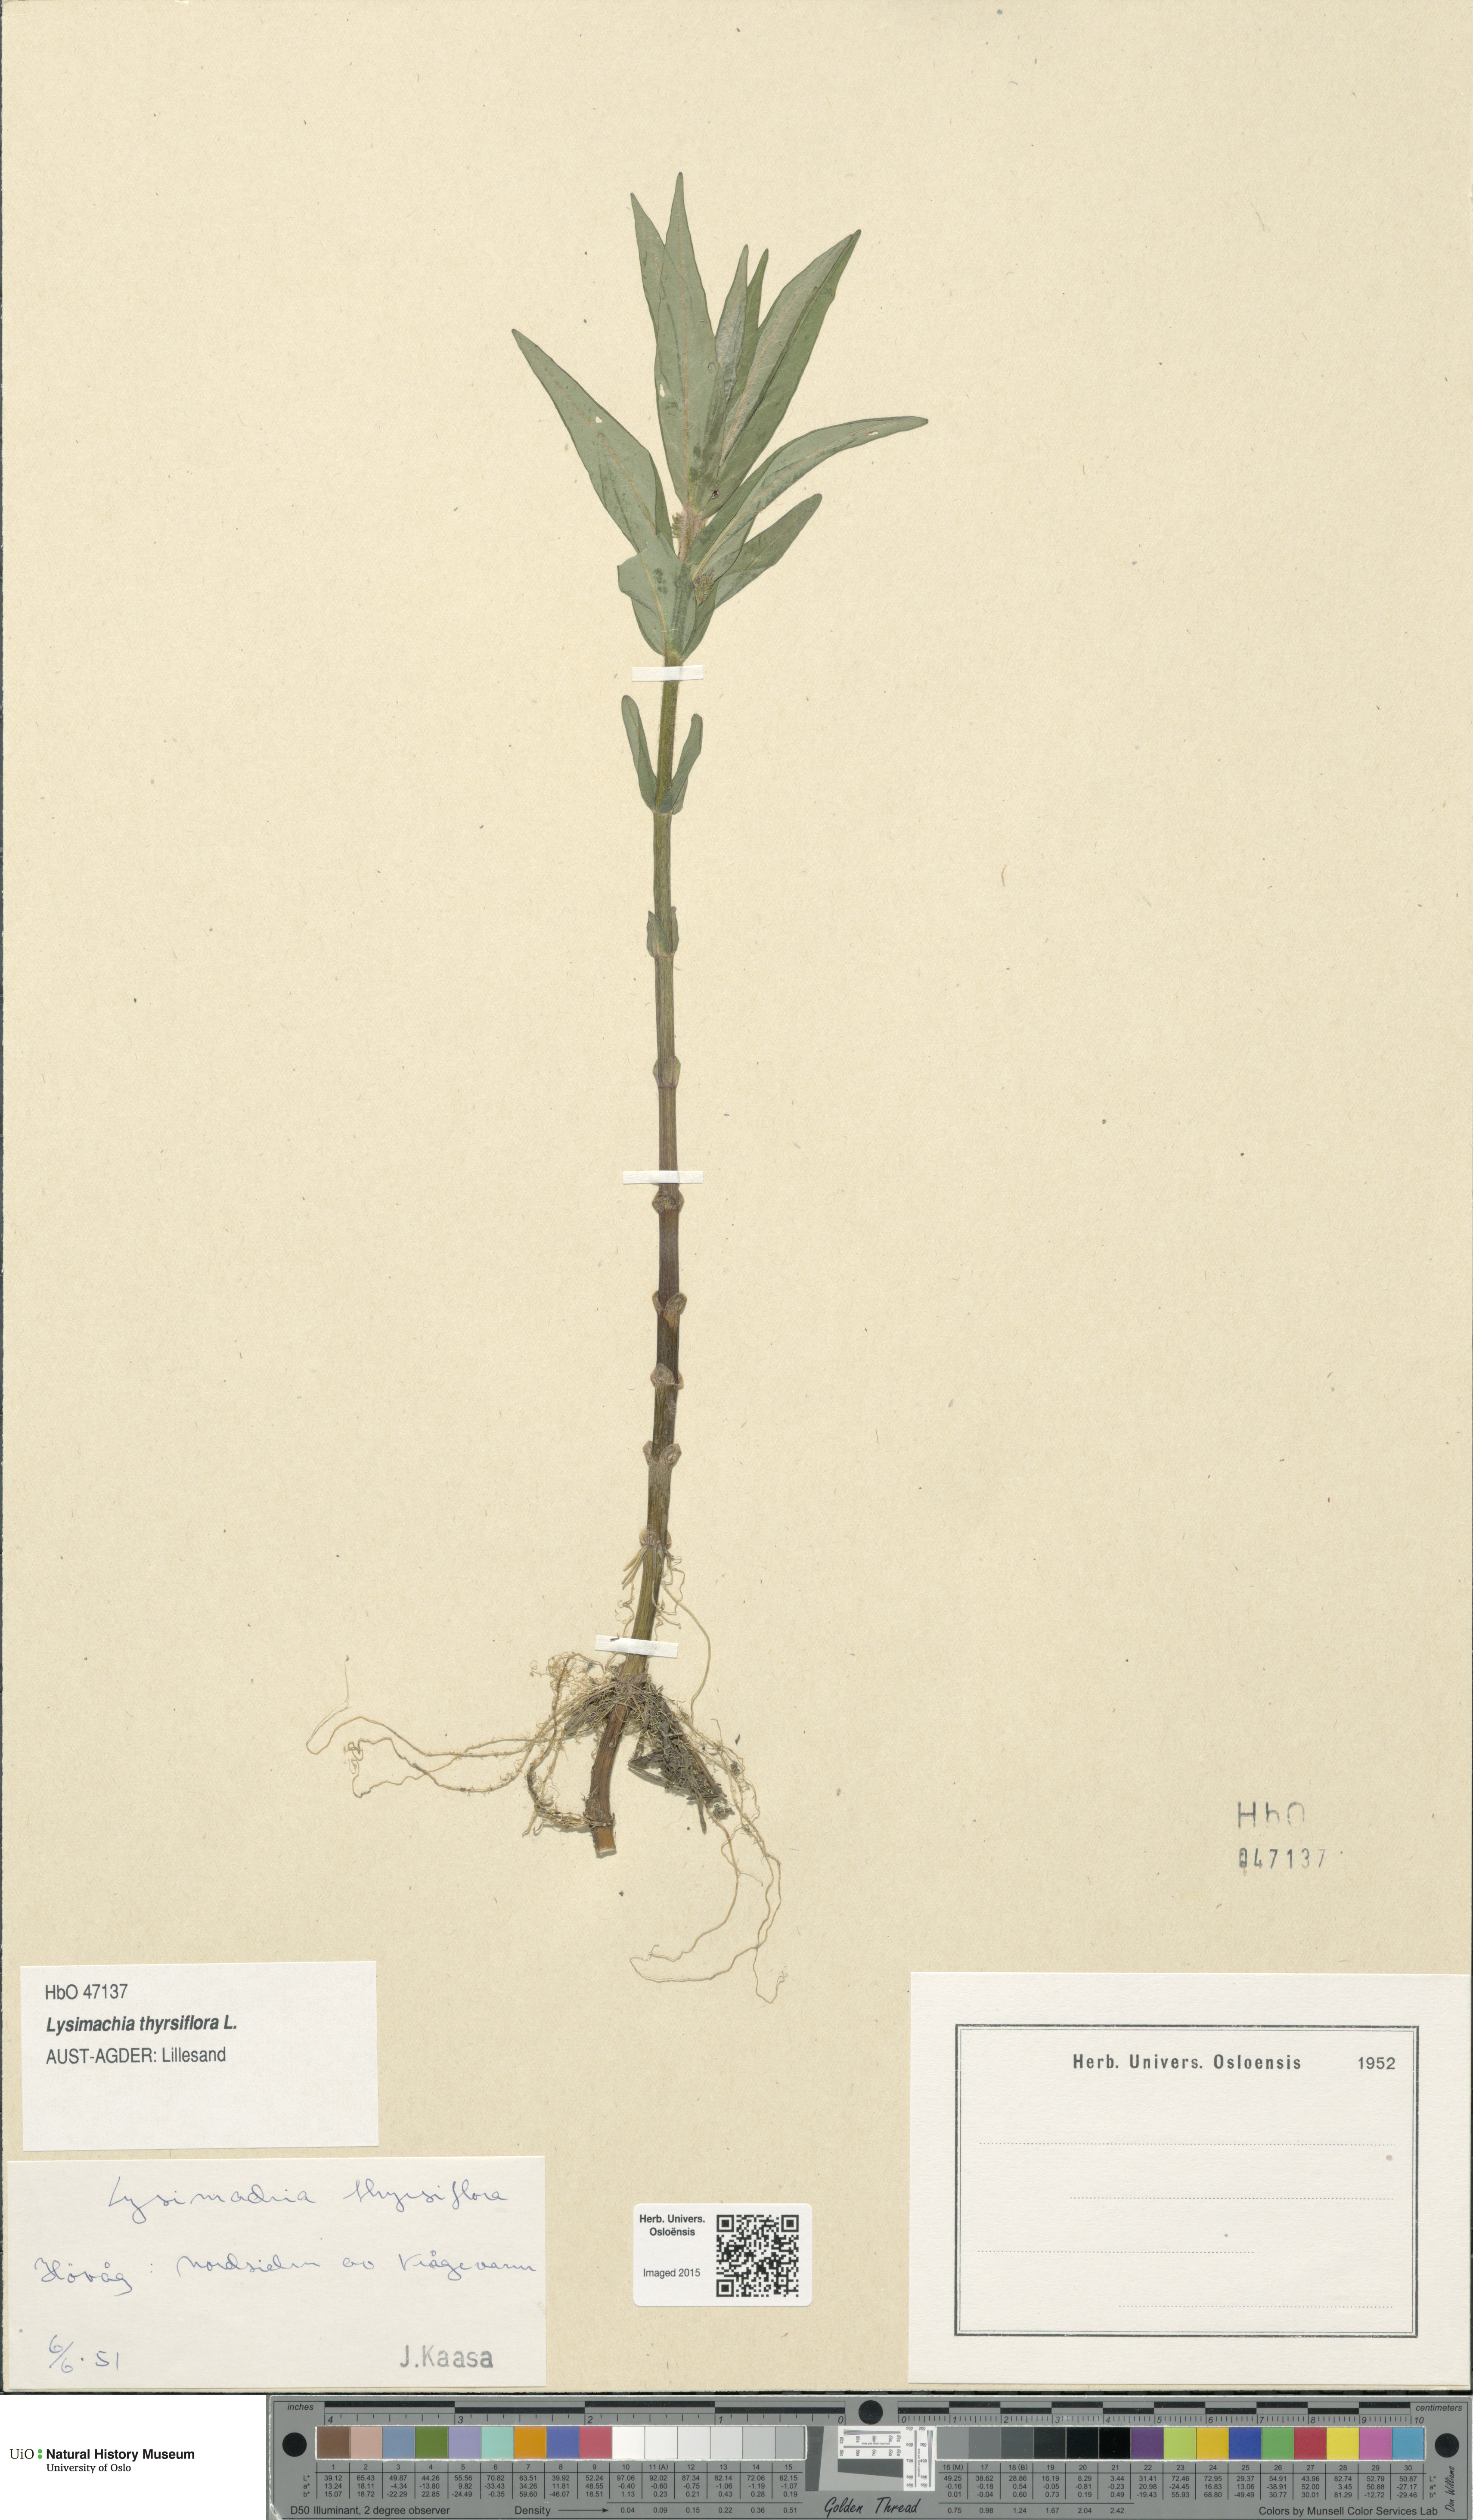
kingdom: Plantae
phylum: Tracheophyta
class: Magnoliopsida
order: Ericales
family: Primulaceae
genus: Lysimachia
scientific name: Lysimachia thyrsiflora
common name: Tufted loosestrife
